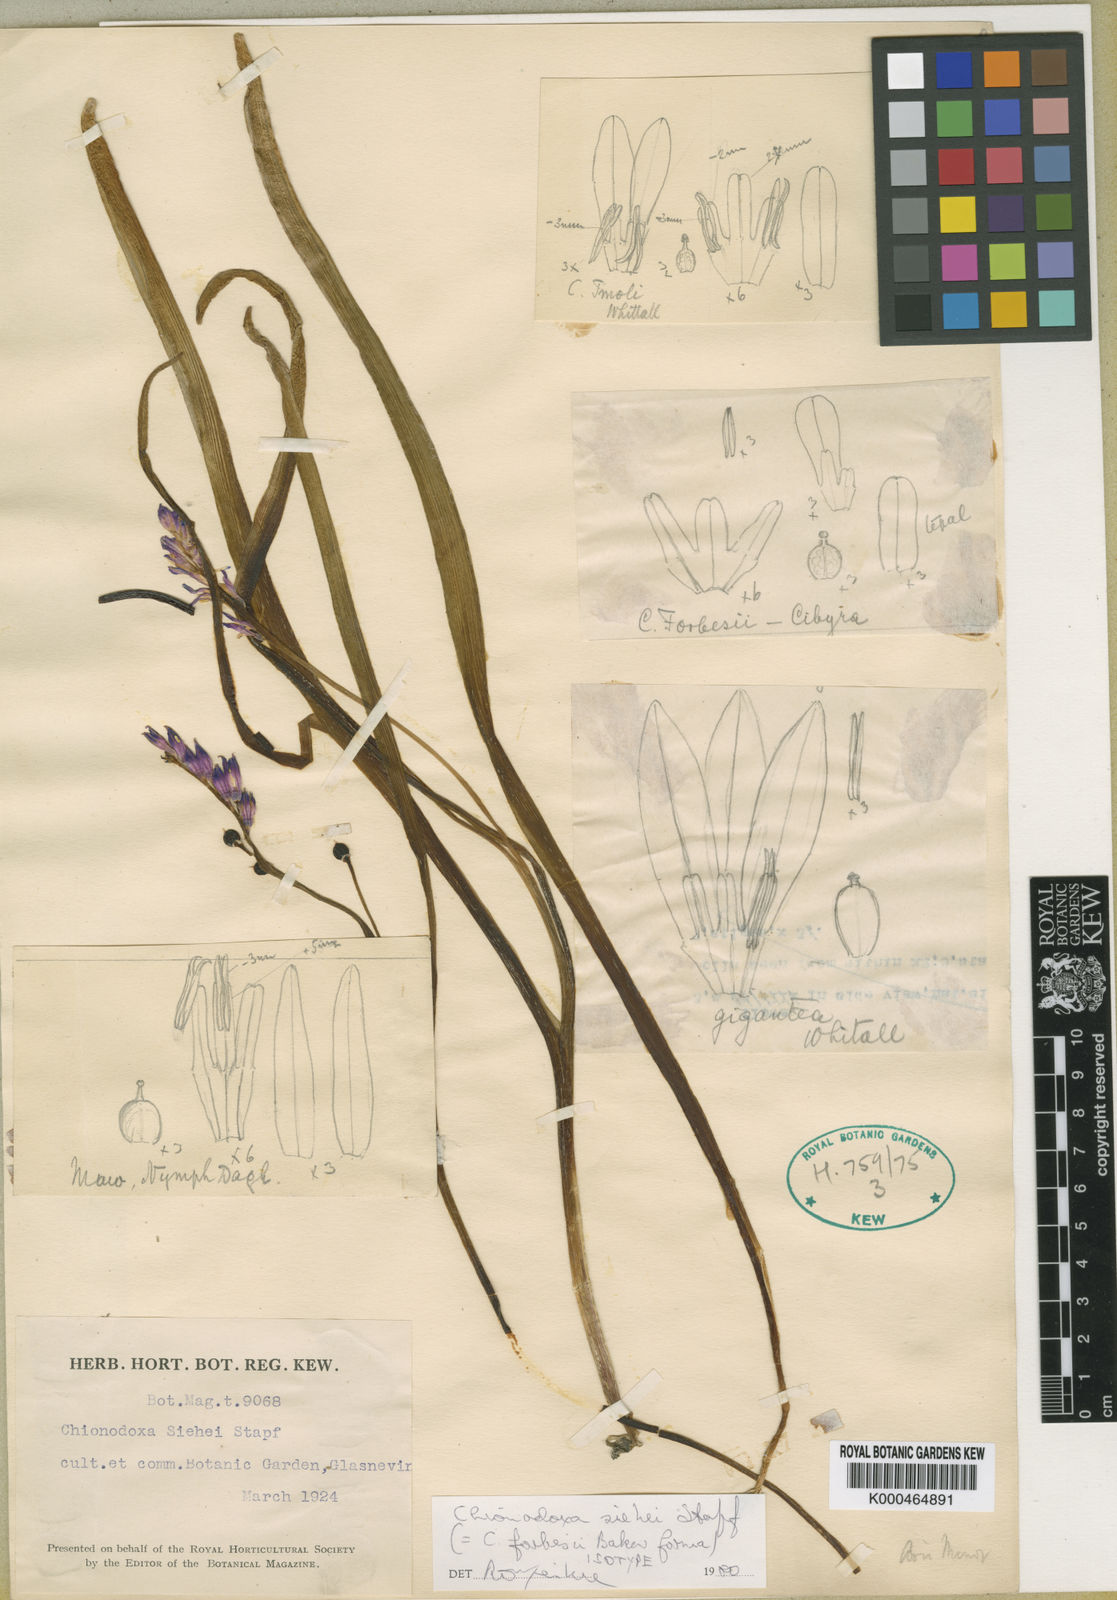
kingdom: Plantae
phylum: Tracheophyta
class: Liliopsida
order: Asparagales
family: Asparagaceae
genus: Scilla
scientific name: Scilla forbesii
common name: Glory-of-the-snow
